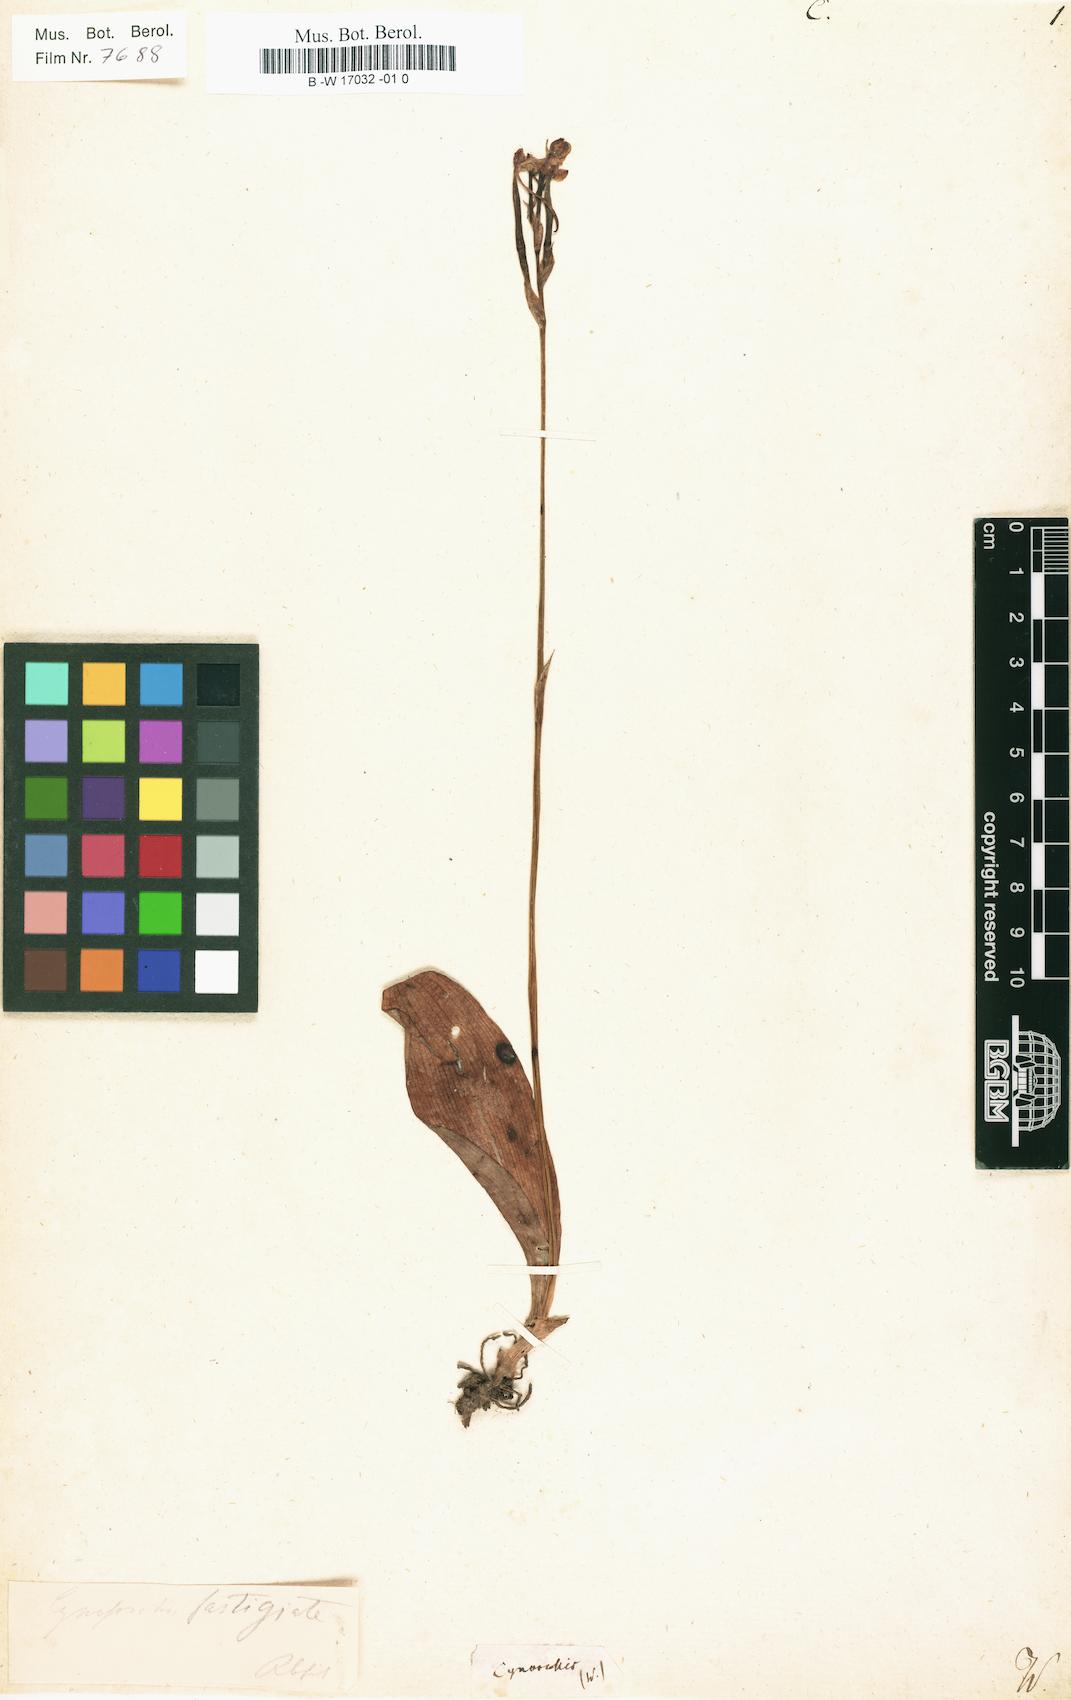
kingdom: Plantae
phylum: Tracheophyta
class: Liliopsida
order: Asparagales
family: Orchidaceae
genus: Cynorkis
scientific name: Cynorkis
